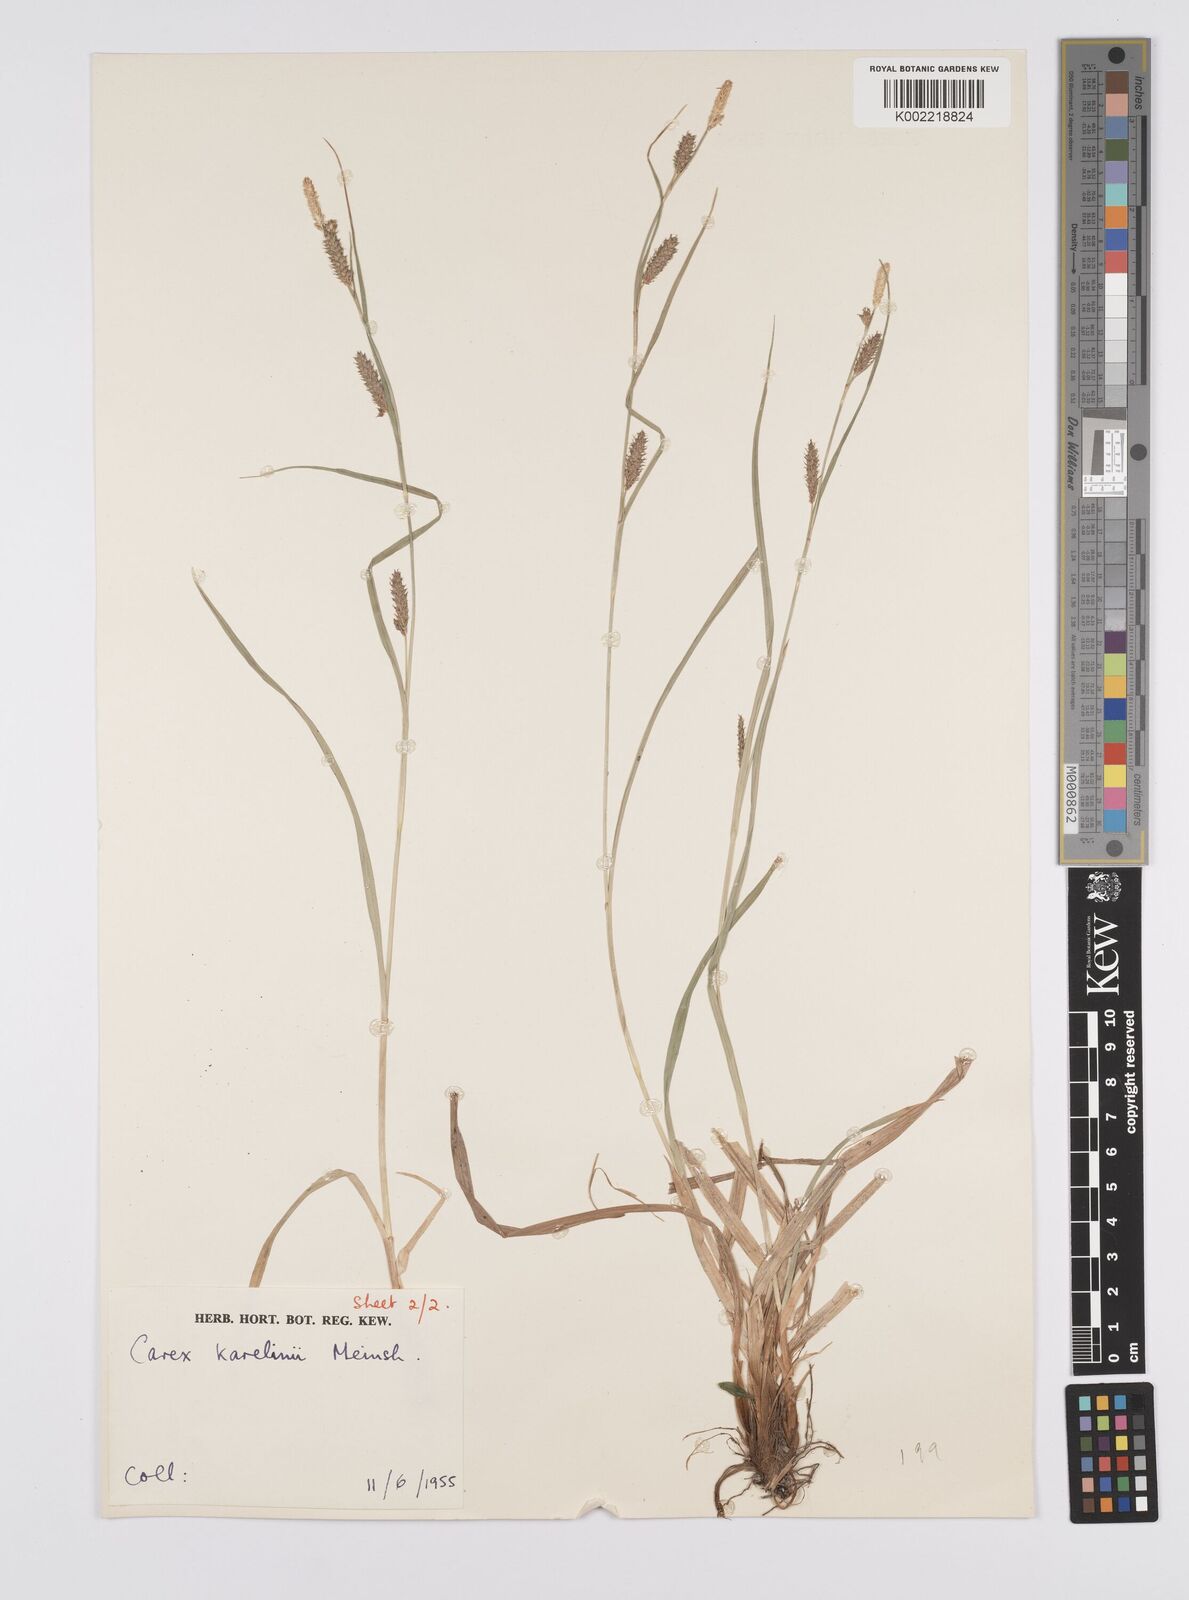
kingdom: Plantae
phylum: Tracheophyta
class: Liliopsida
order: Poales
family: Cyperaceae
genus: Carex
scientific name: Carex diluta
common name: Sedge
